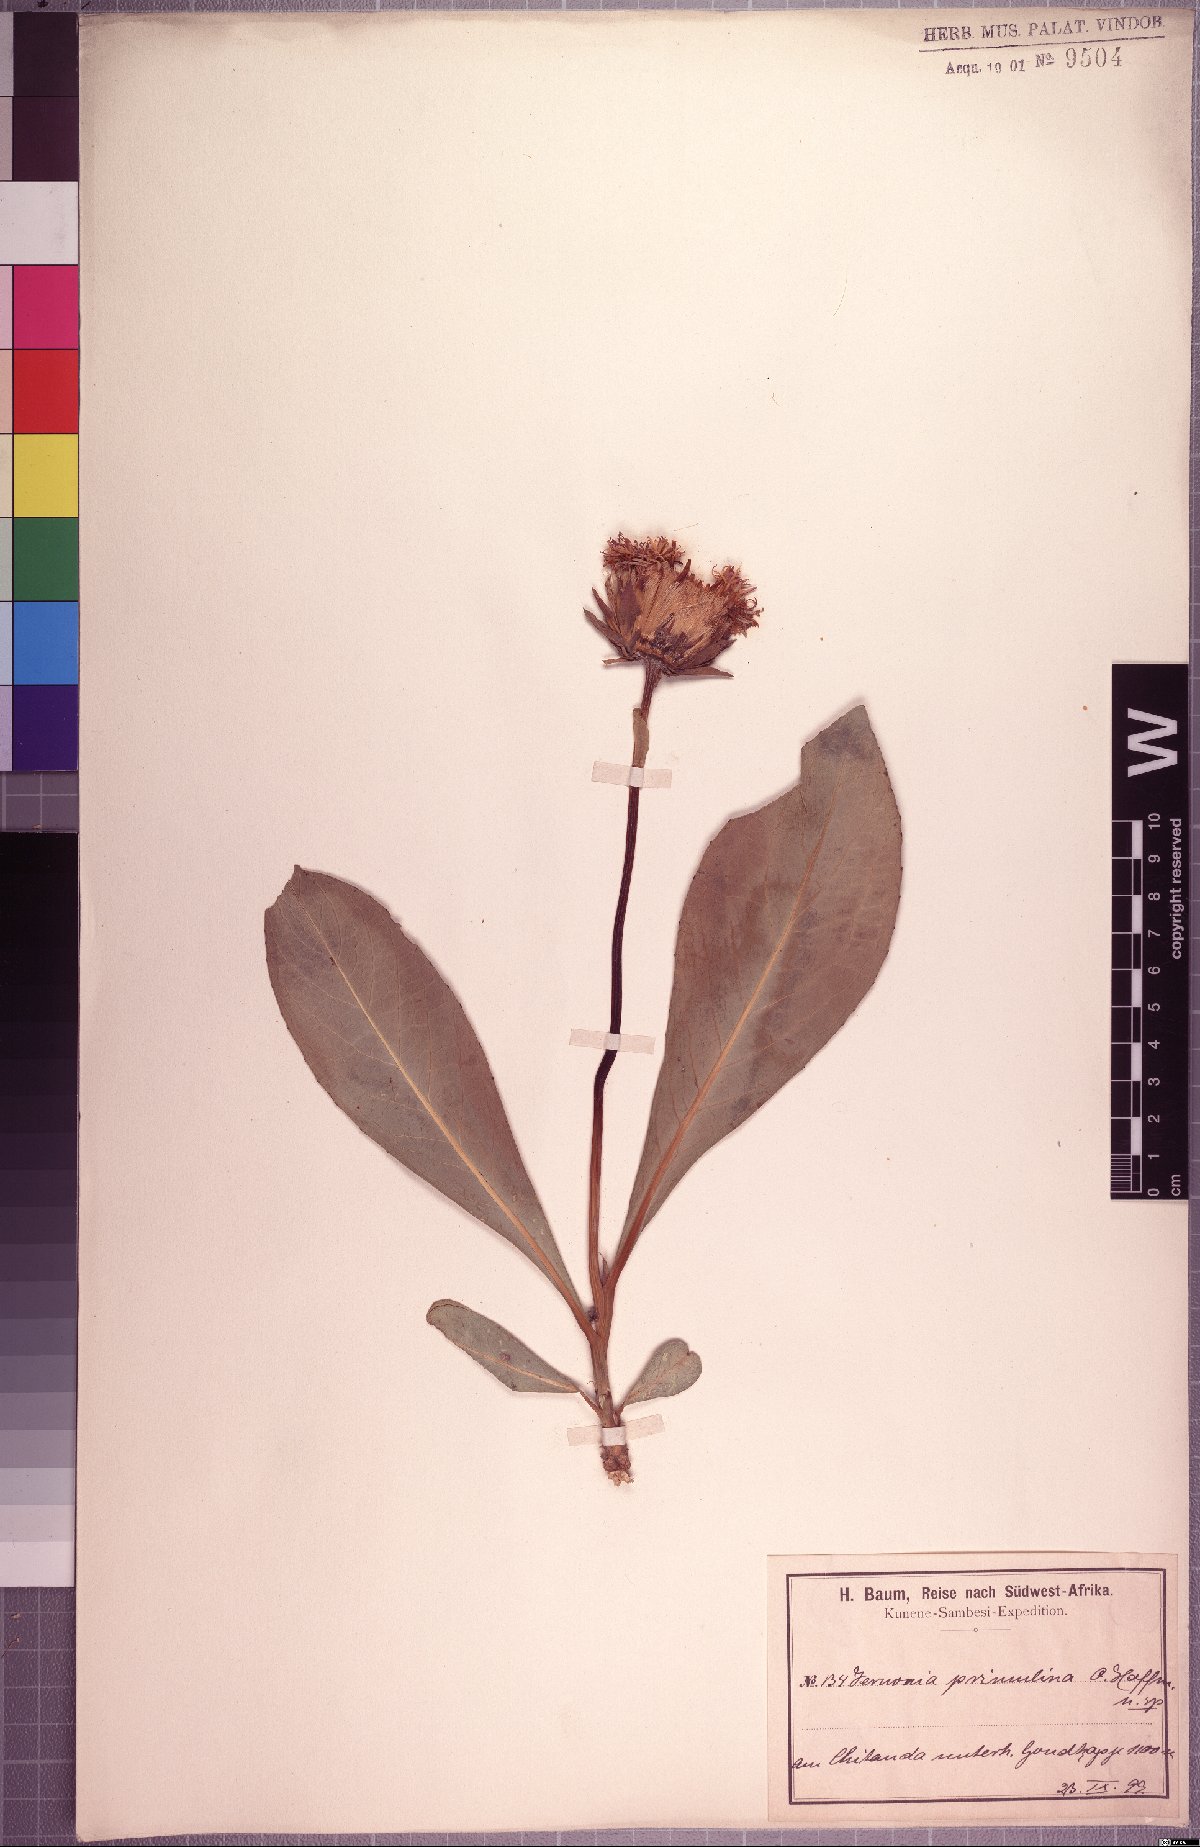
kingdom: Plantae
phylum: Tracheophyta
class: Magnoliopsida
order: Asterales
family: Asteraceae
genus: Linzia
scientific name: Linzia gerberiformis
